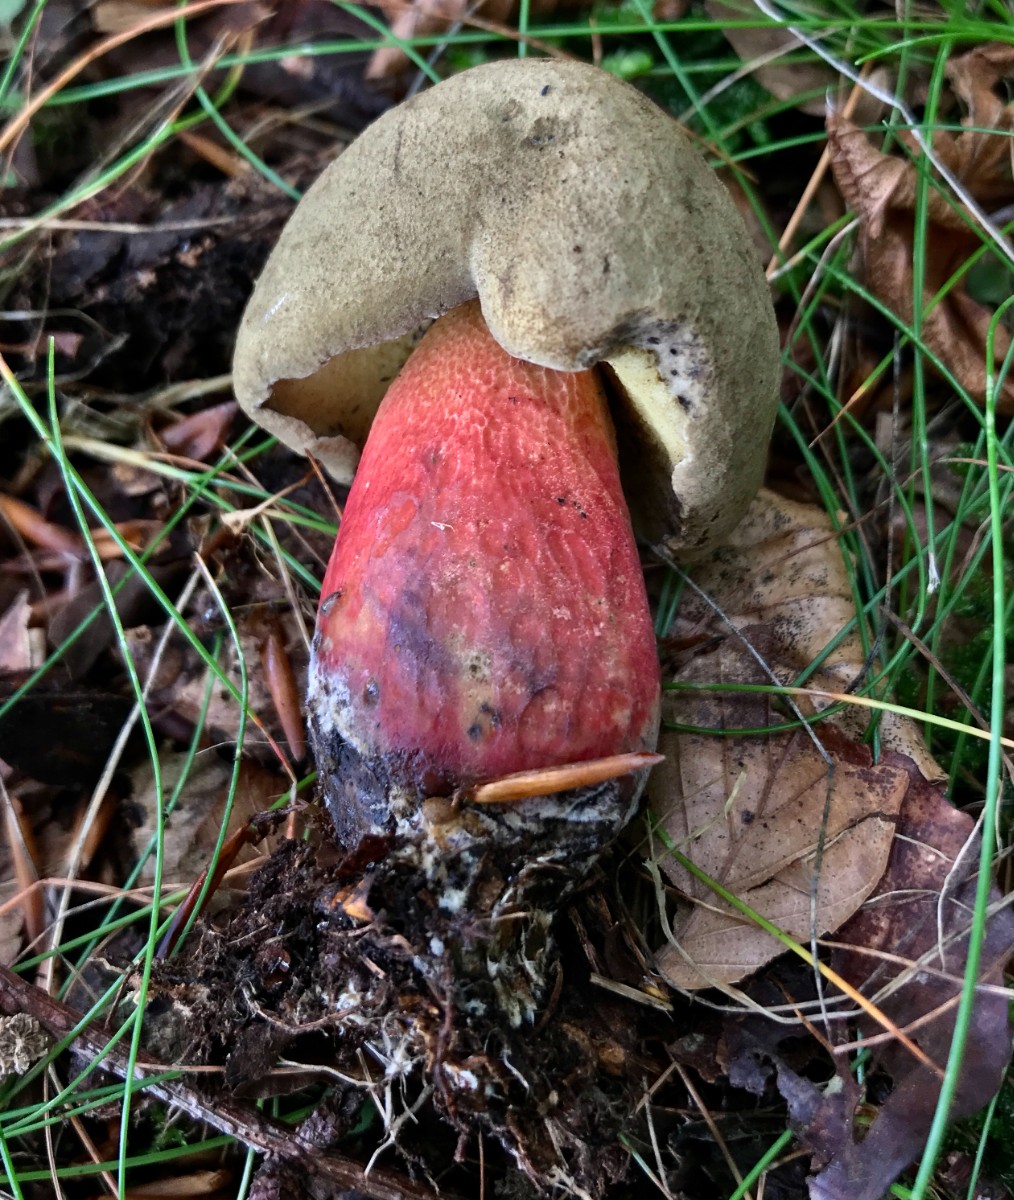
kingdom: Fungi
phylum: Basidiomycota
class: Agaricomycetes
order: Boletales
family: Boletaceae
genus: Caloboletus
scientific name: Caloboletus calopus
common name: skønfodet rørhat
